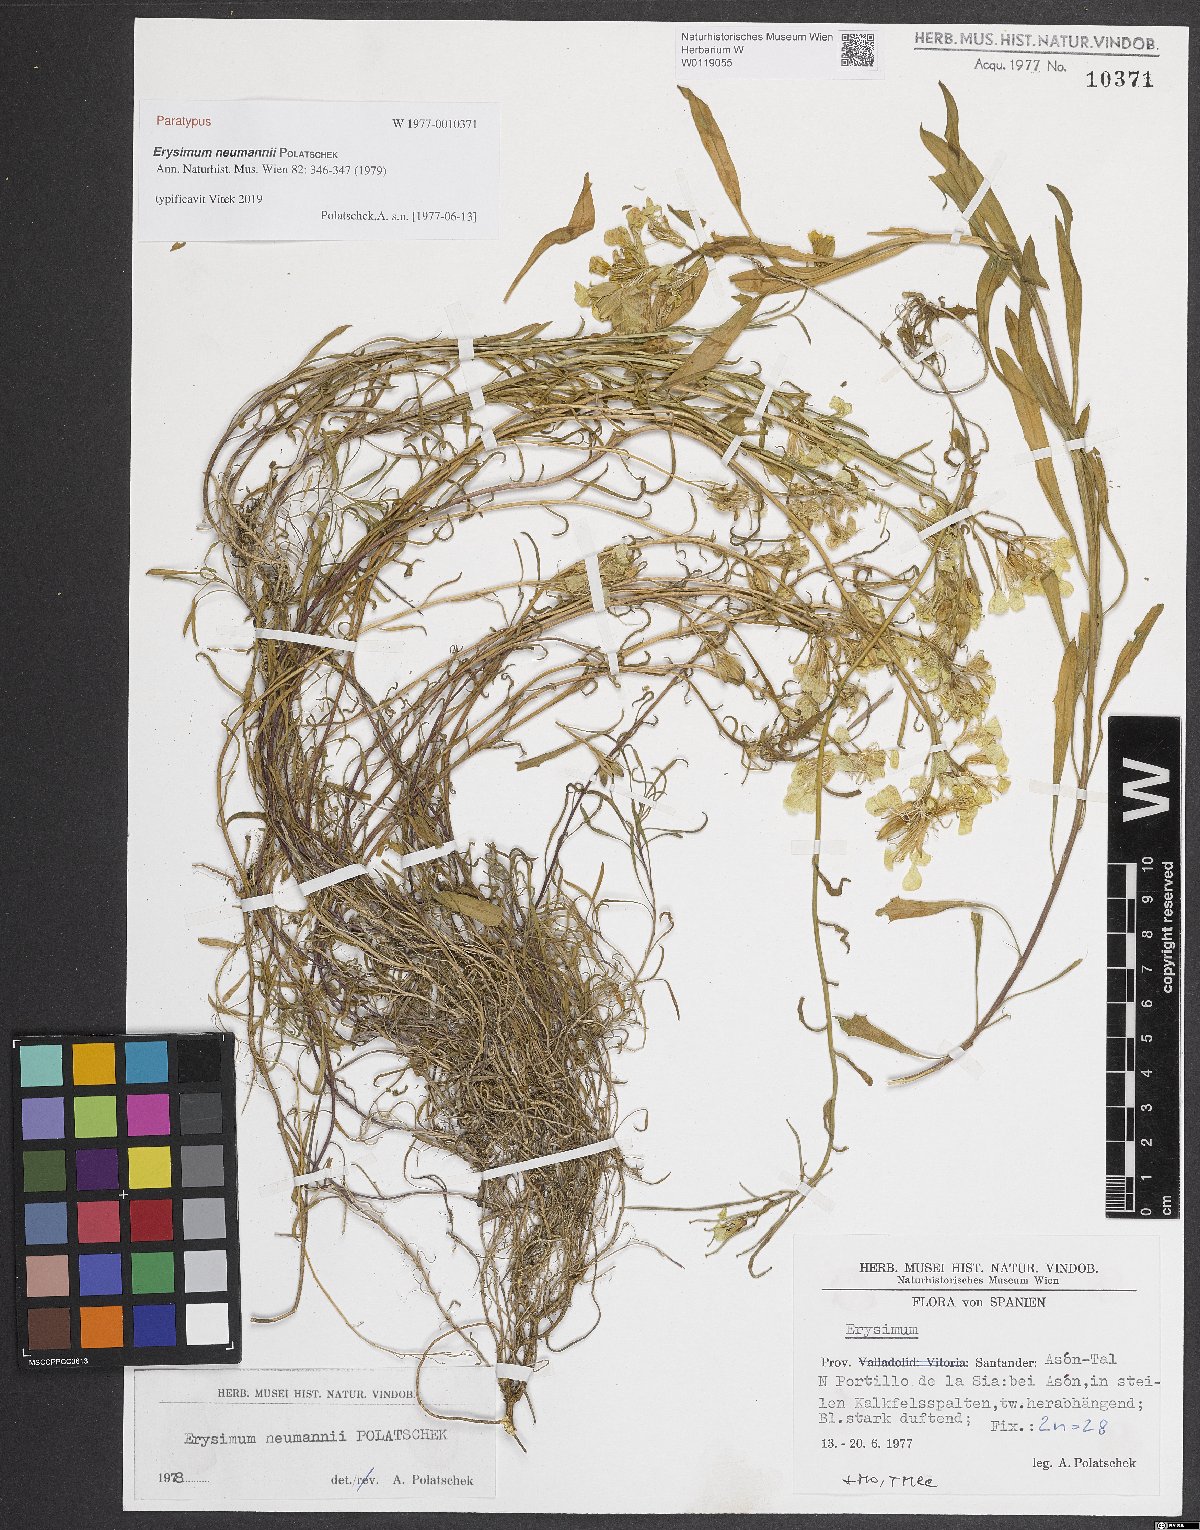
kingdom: Plantae
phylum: Tracheophyta
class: Magnoliopsida
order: Brassicales
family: Brassicaceae
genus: Erysimum
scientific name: Erysimum duriaei
